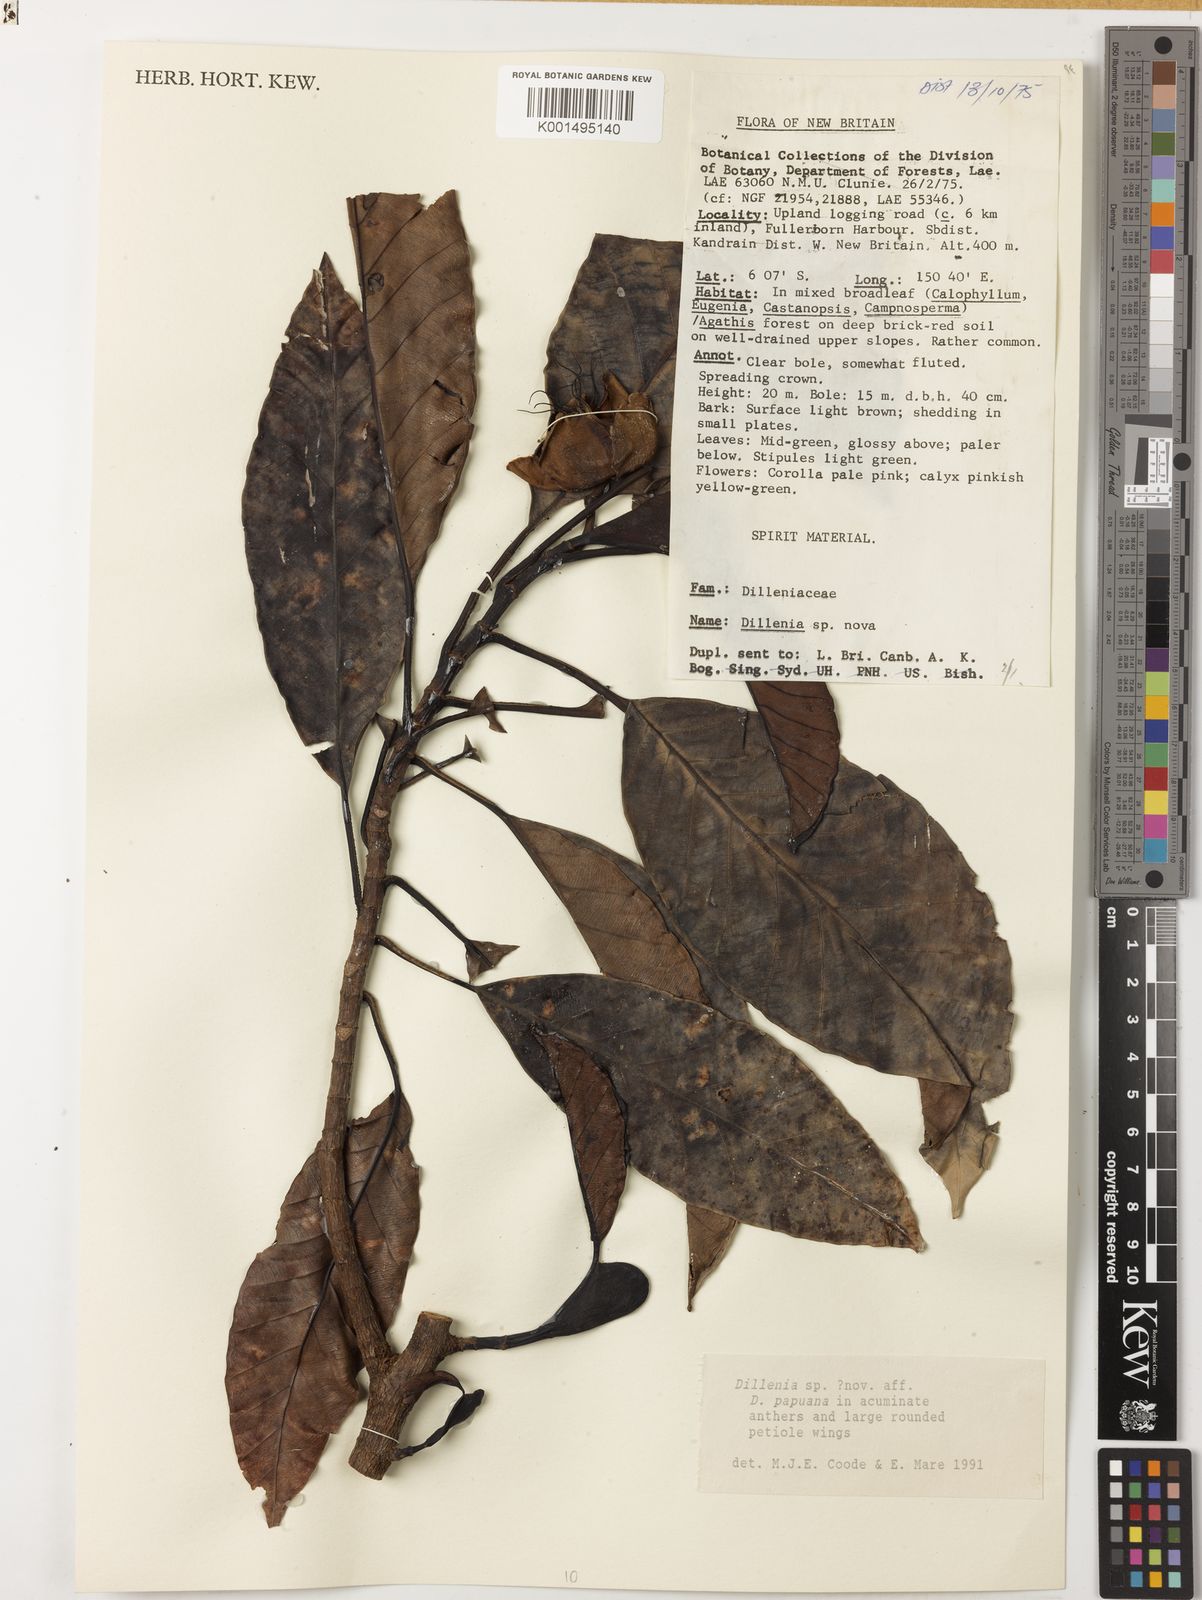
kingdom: Plantae
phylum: Tracheophyta
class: Magnoliopsida
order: Dilleniales
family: Dilleniaceae
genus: Dillenia
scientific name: Dillenia
